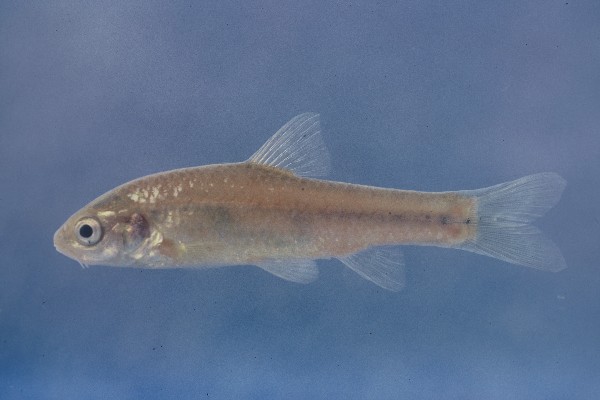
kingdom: Animalia
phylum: Chordata
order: Cypriniformes
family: Cyprinidae
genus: Enteromius
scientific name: Enteromius anoplus
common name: Chubbyhead barb
